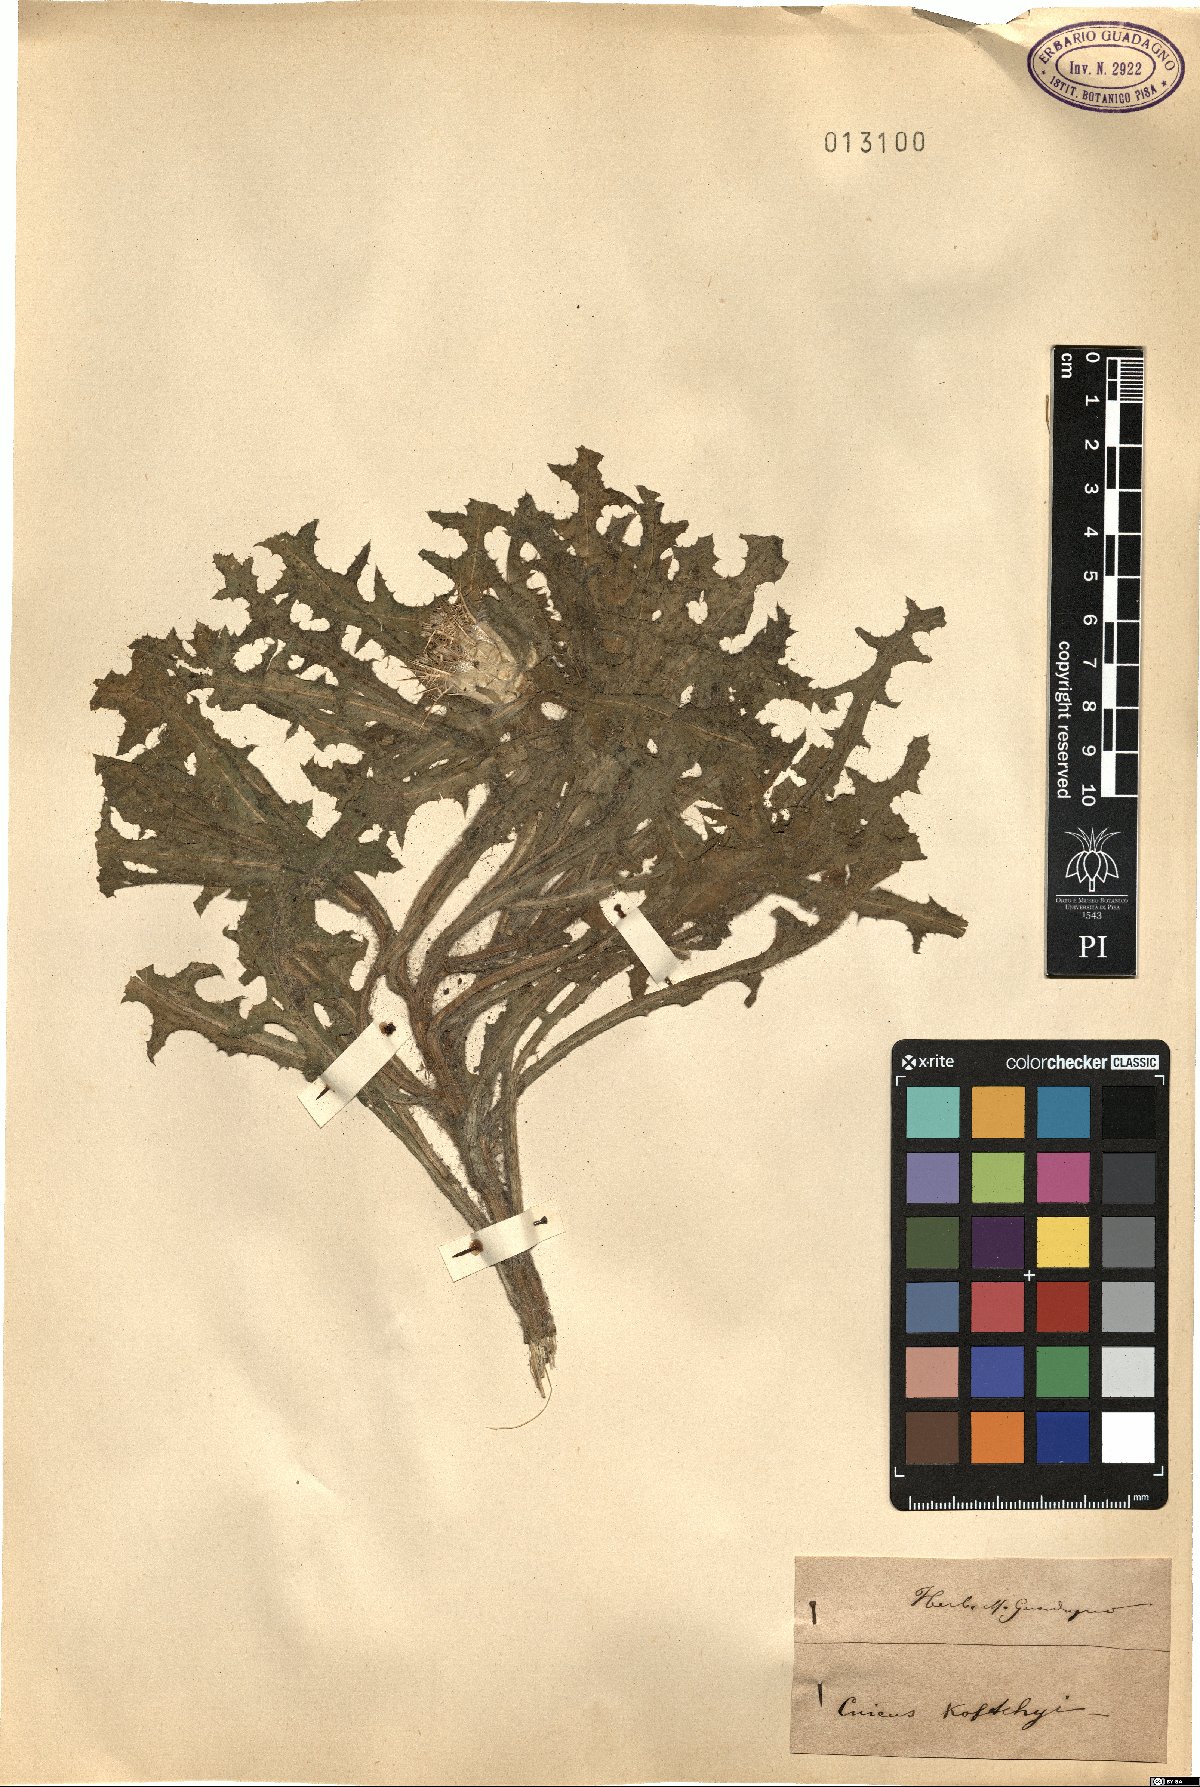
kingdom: Plantae
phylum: Tracheophyta
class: Magnoliopsida
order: Asterales
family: Asteraceae
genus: Cirsium
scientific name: Cirsium kozlowskyi
